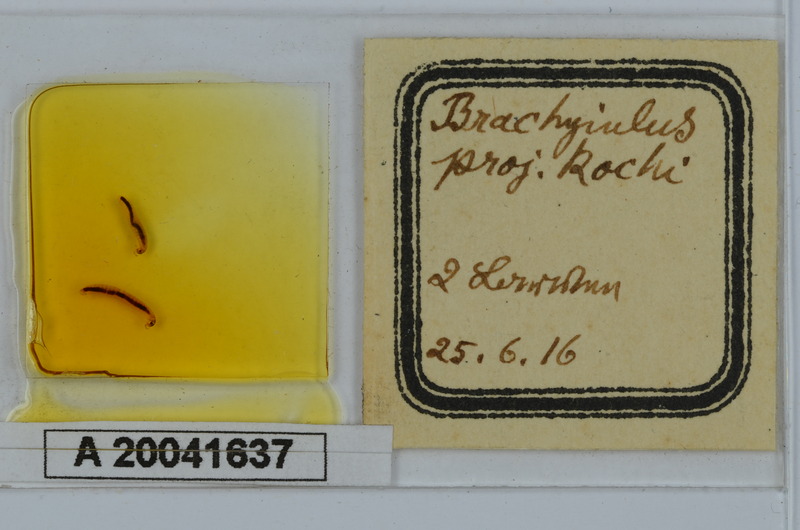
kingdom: Animalia
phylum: Arthropoda
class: Diplopoda
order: Julida
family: Julidae
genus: Megaphyllum
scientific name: Megaphyllum projectum
